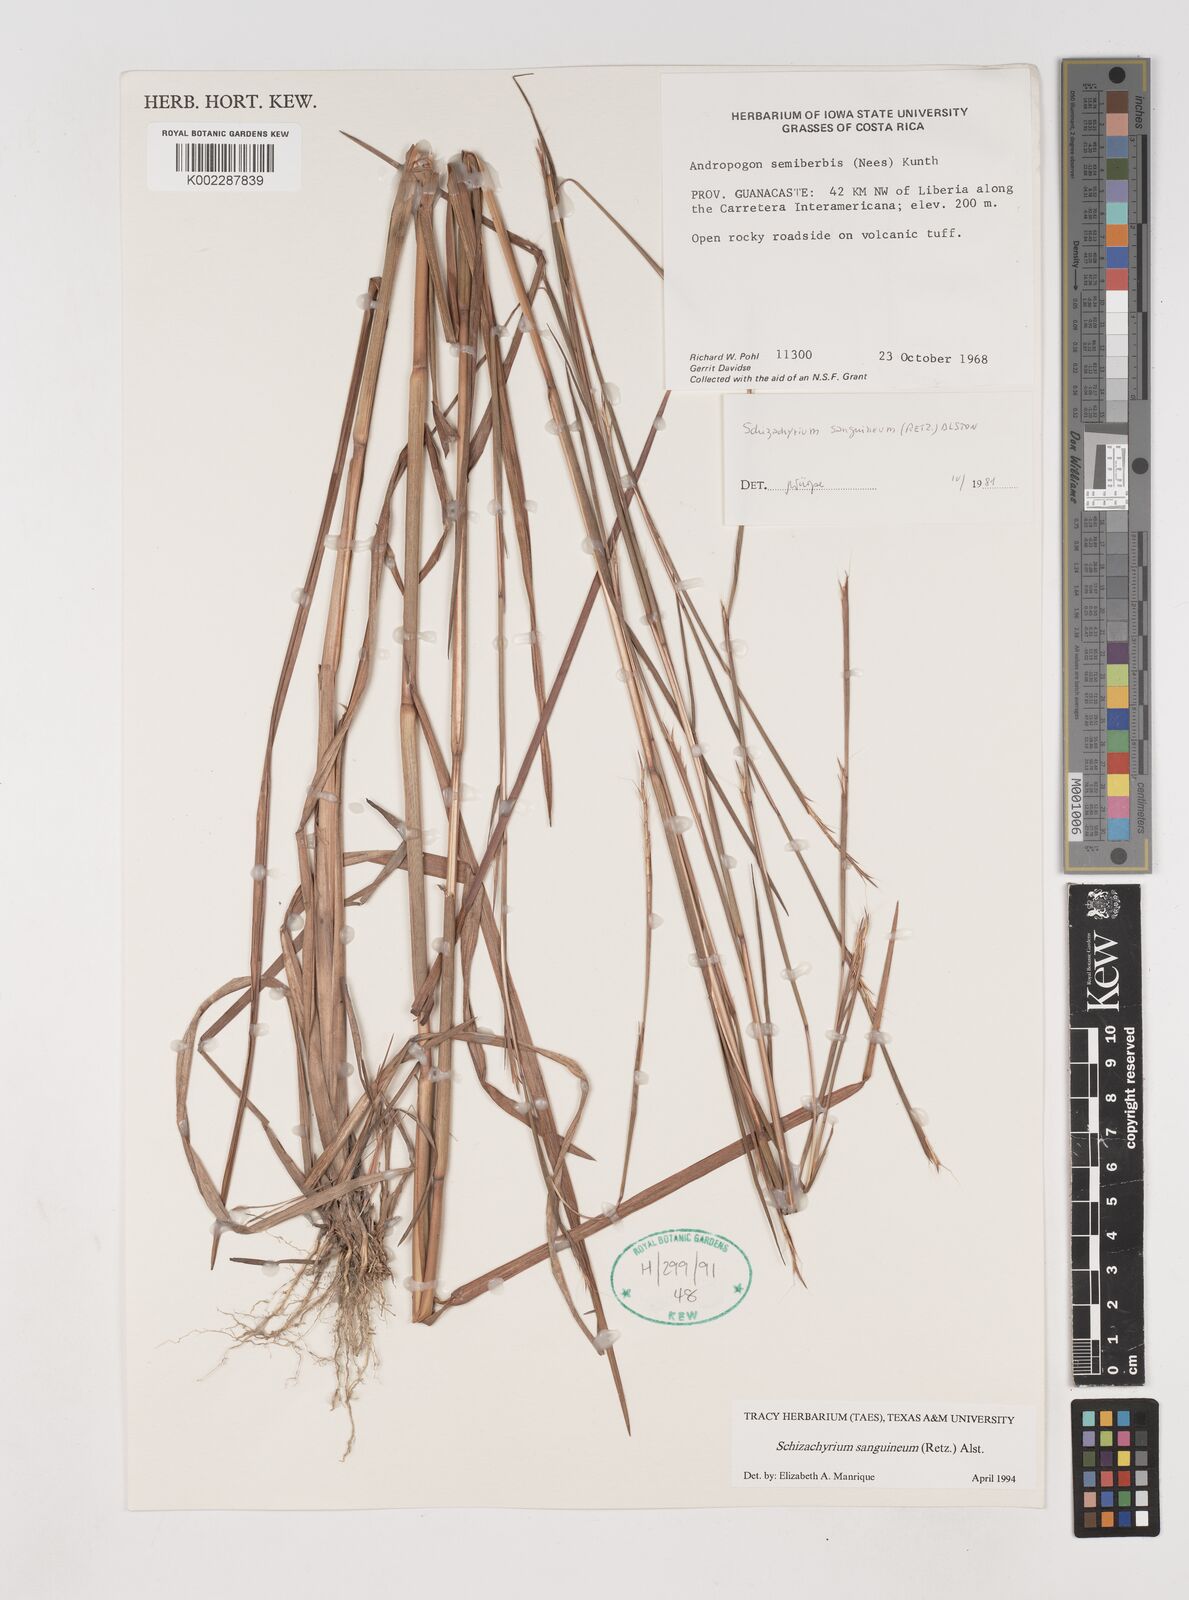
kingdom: Plantae
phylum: Tracheophyta
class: Liliopsida
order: Poales
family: Poaceae
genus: Schizachyrium
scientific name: Schizachyrium sanguineum
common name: Crimson bluestem
